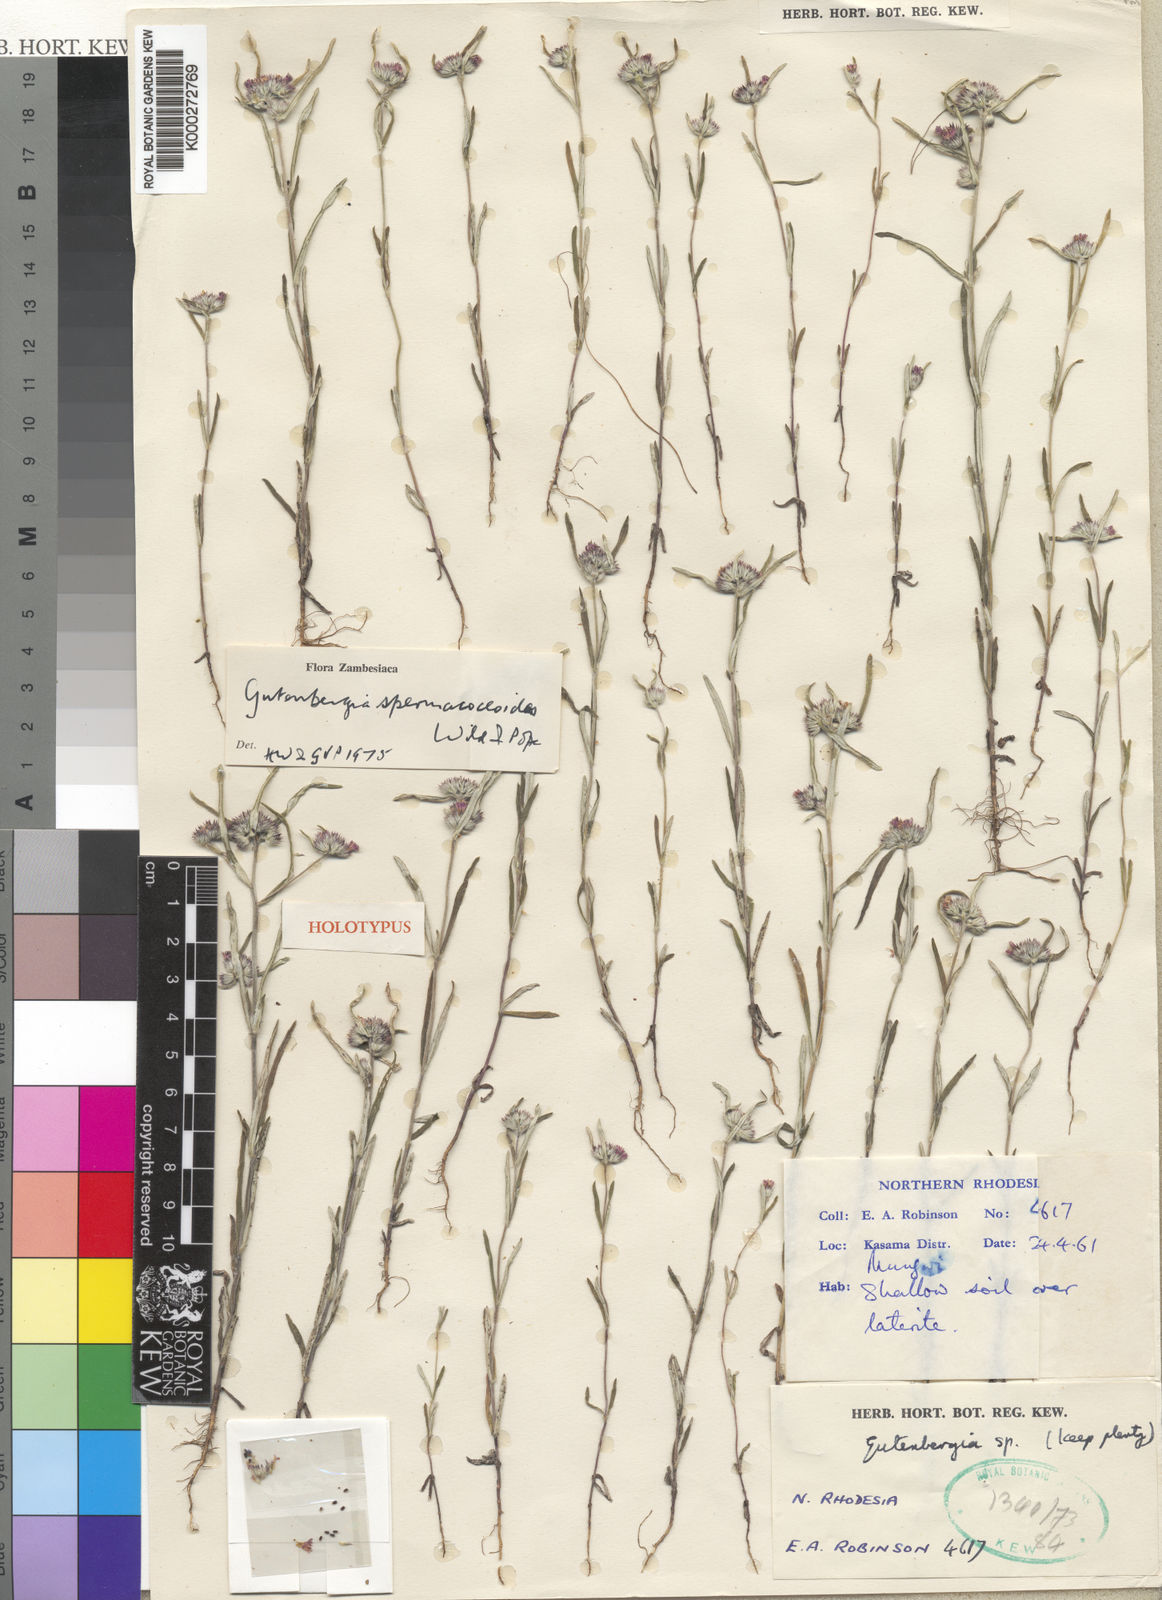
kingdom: Plantae
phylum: Tracheophyta
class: Magnoliopsida
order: Asterales
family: Asteraceae
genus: Gutenbergia
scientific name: Gutenbergia spermacoceoides
